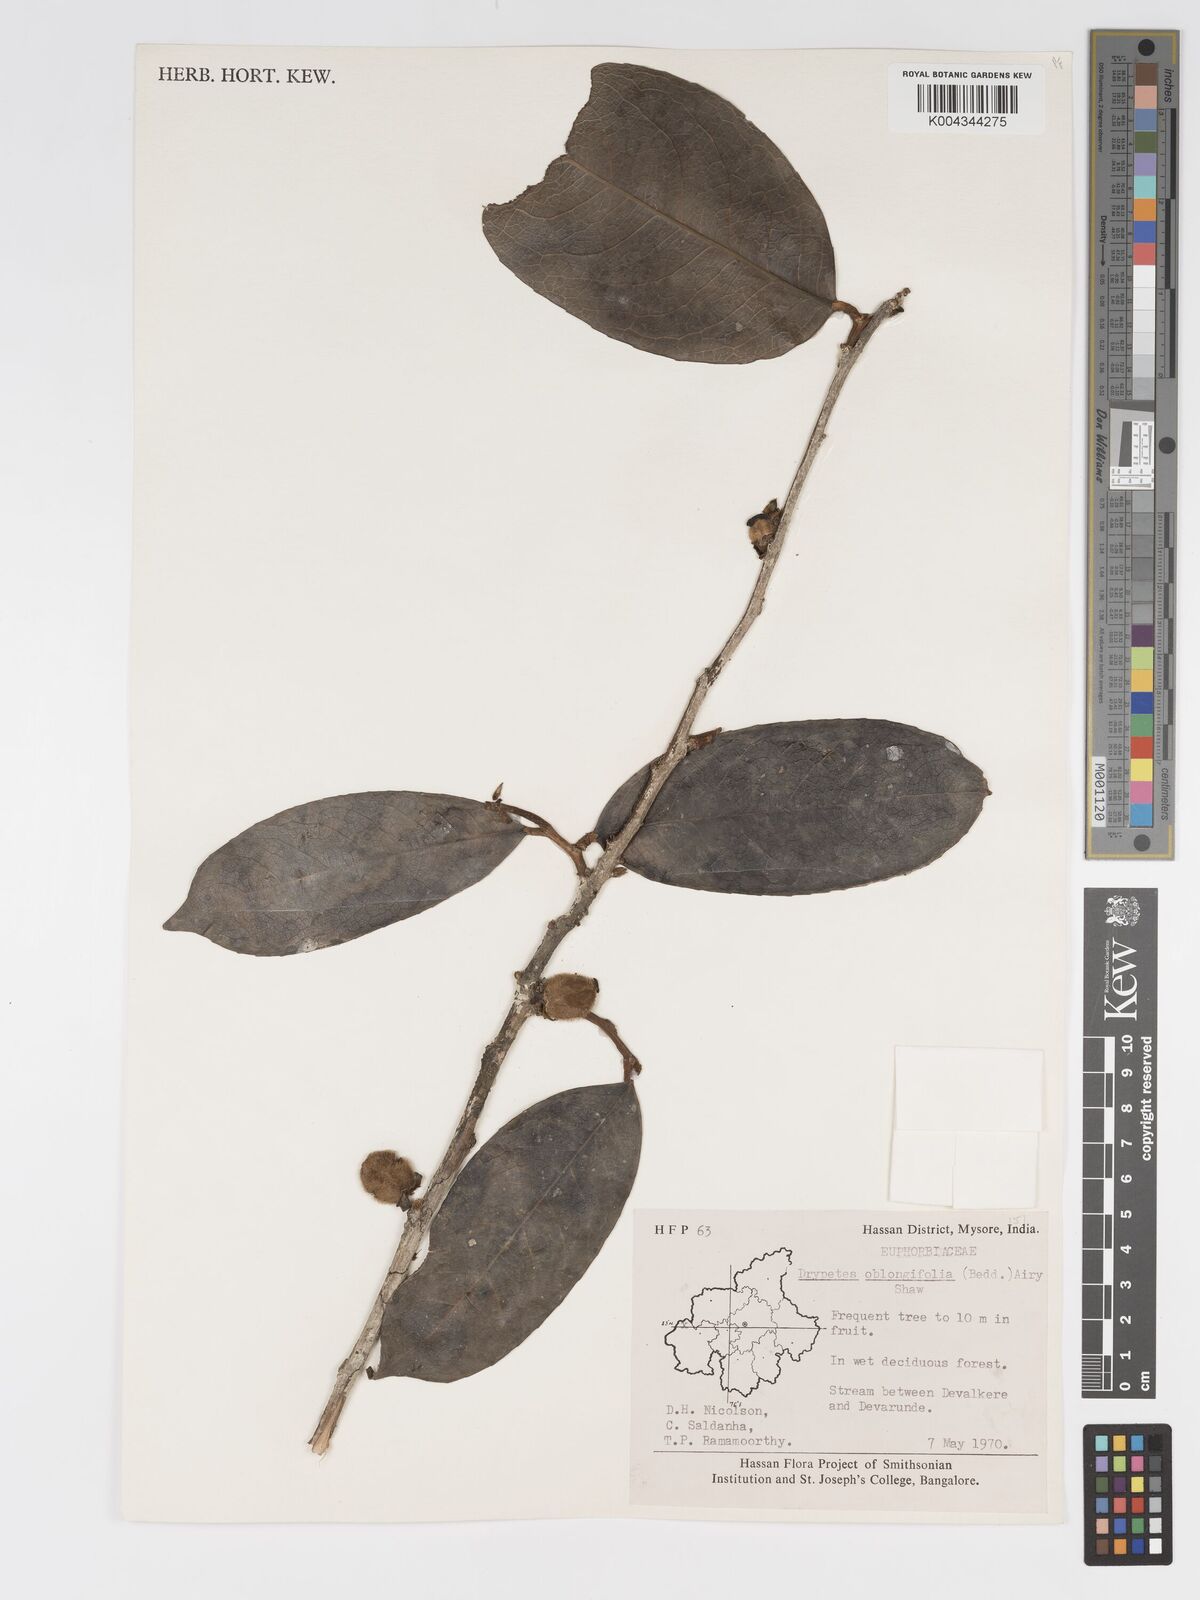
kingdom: Plantae
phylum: Tracheophyta
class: Magnoliopsida
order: Malpighiales
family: Putranjivaceae
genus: Drypetes
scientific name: Drypetes oblongifolia
